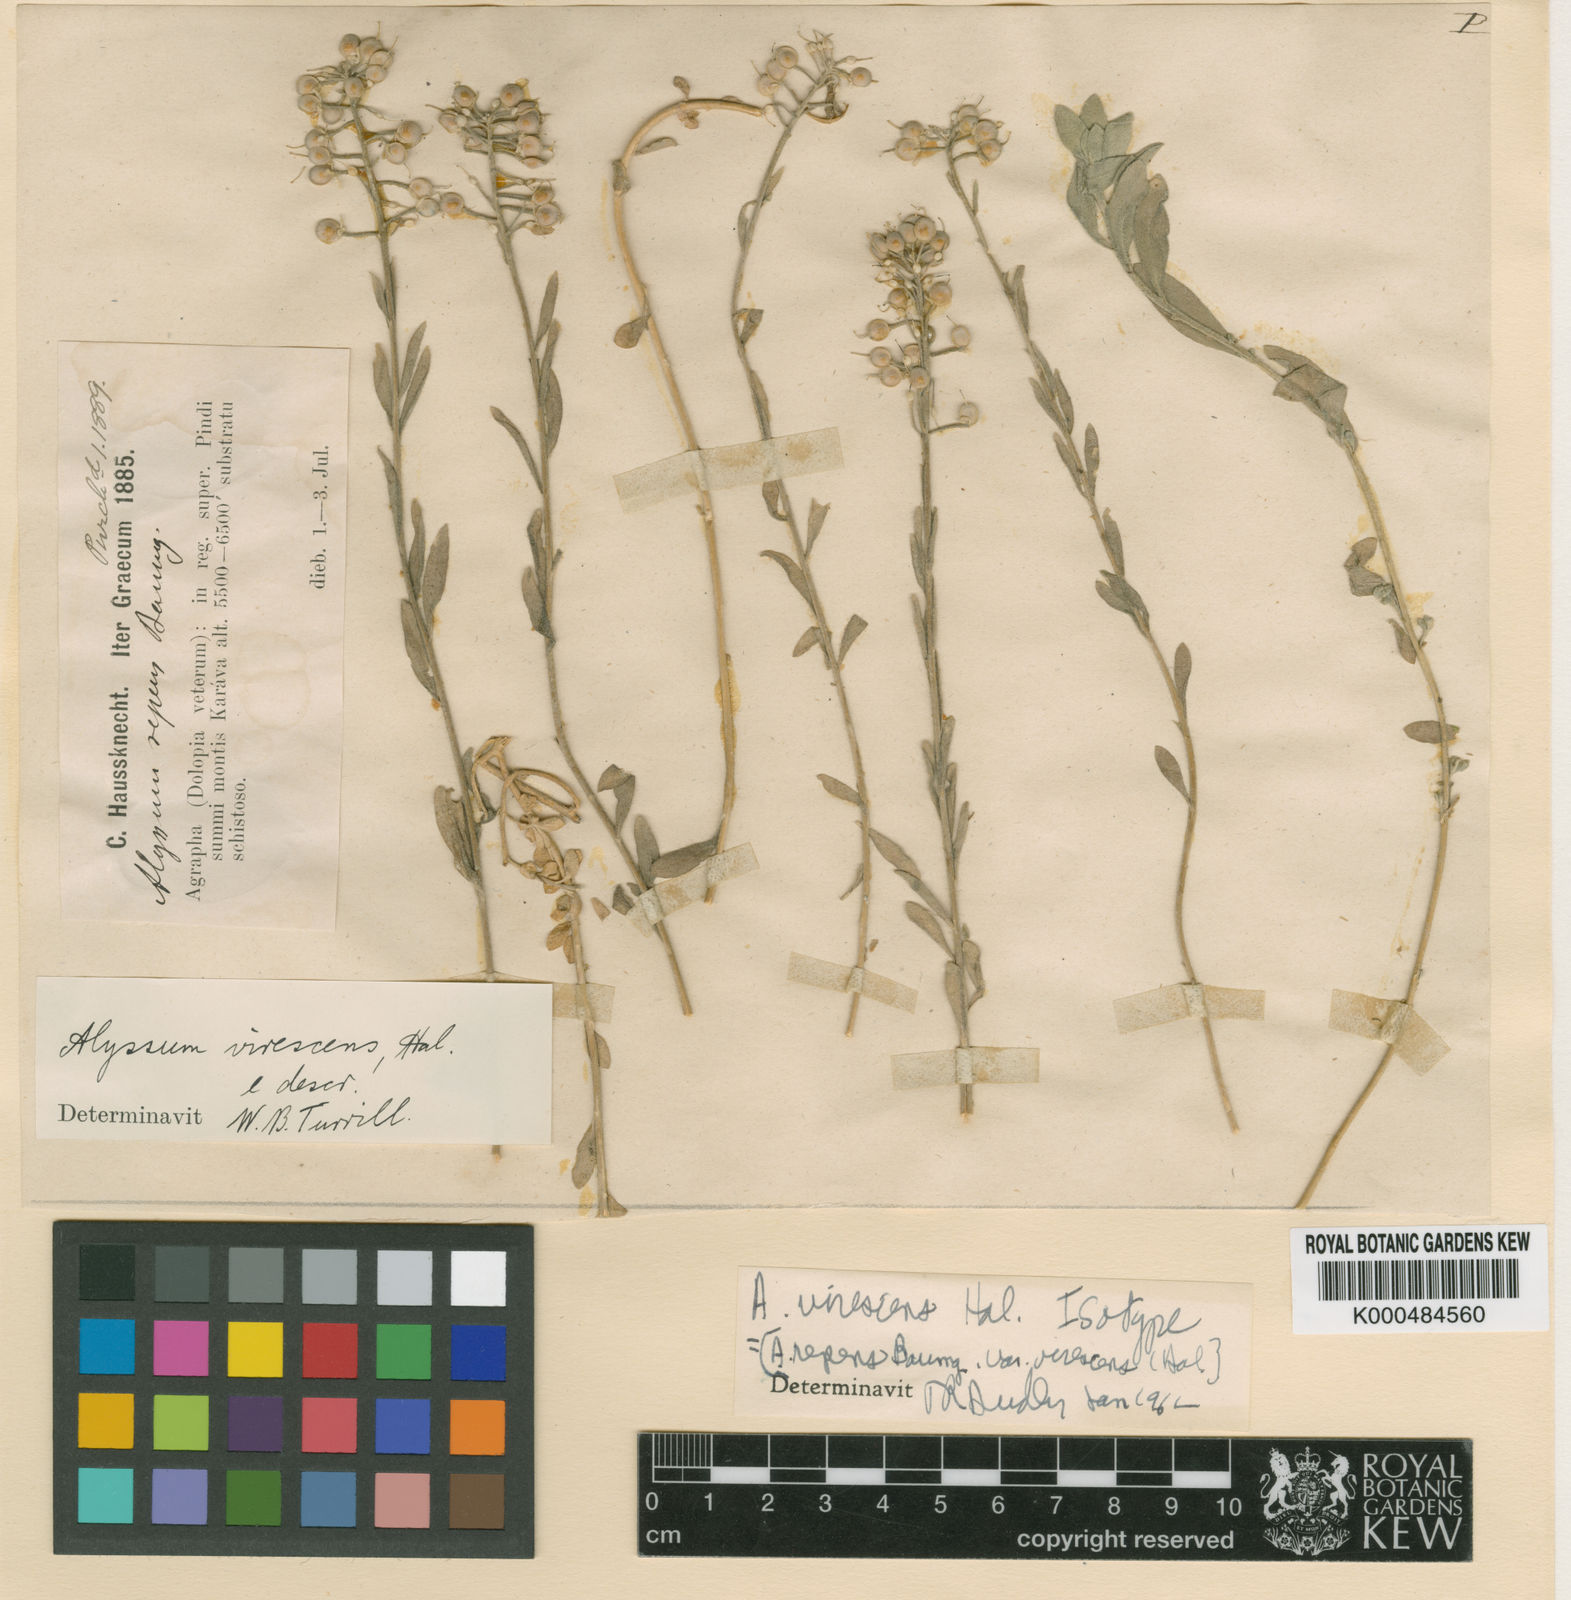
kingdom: Plantae
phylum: Tracheophyta
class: Magnoliopsida
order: Brassicales
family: Brassicaceae
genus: Alyssum
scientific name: Alyssum repens
